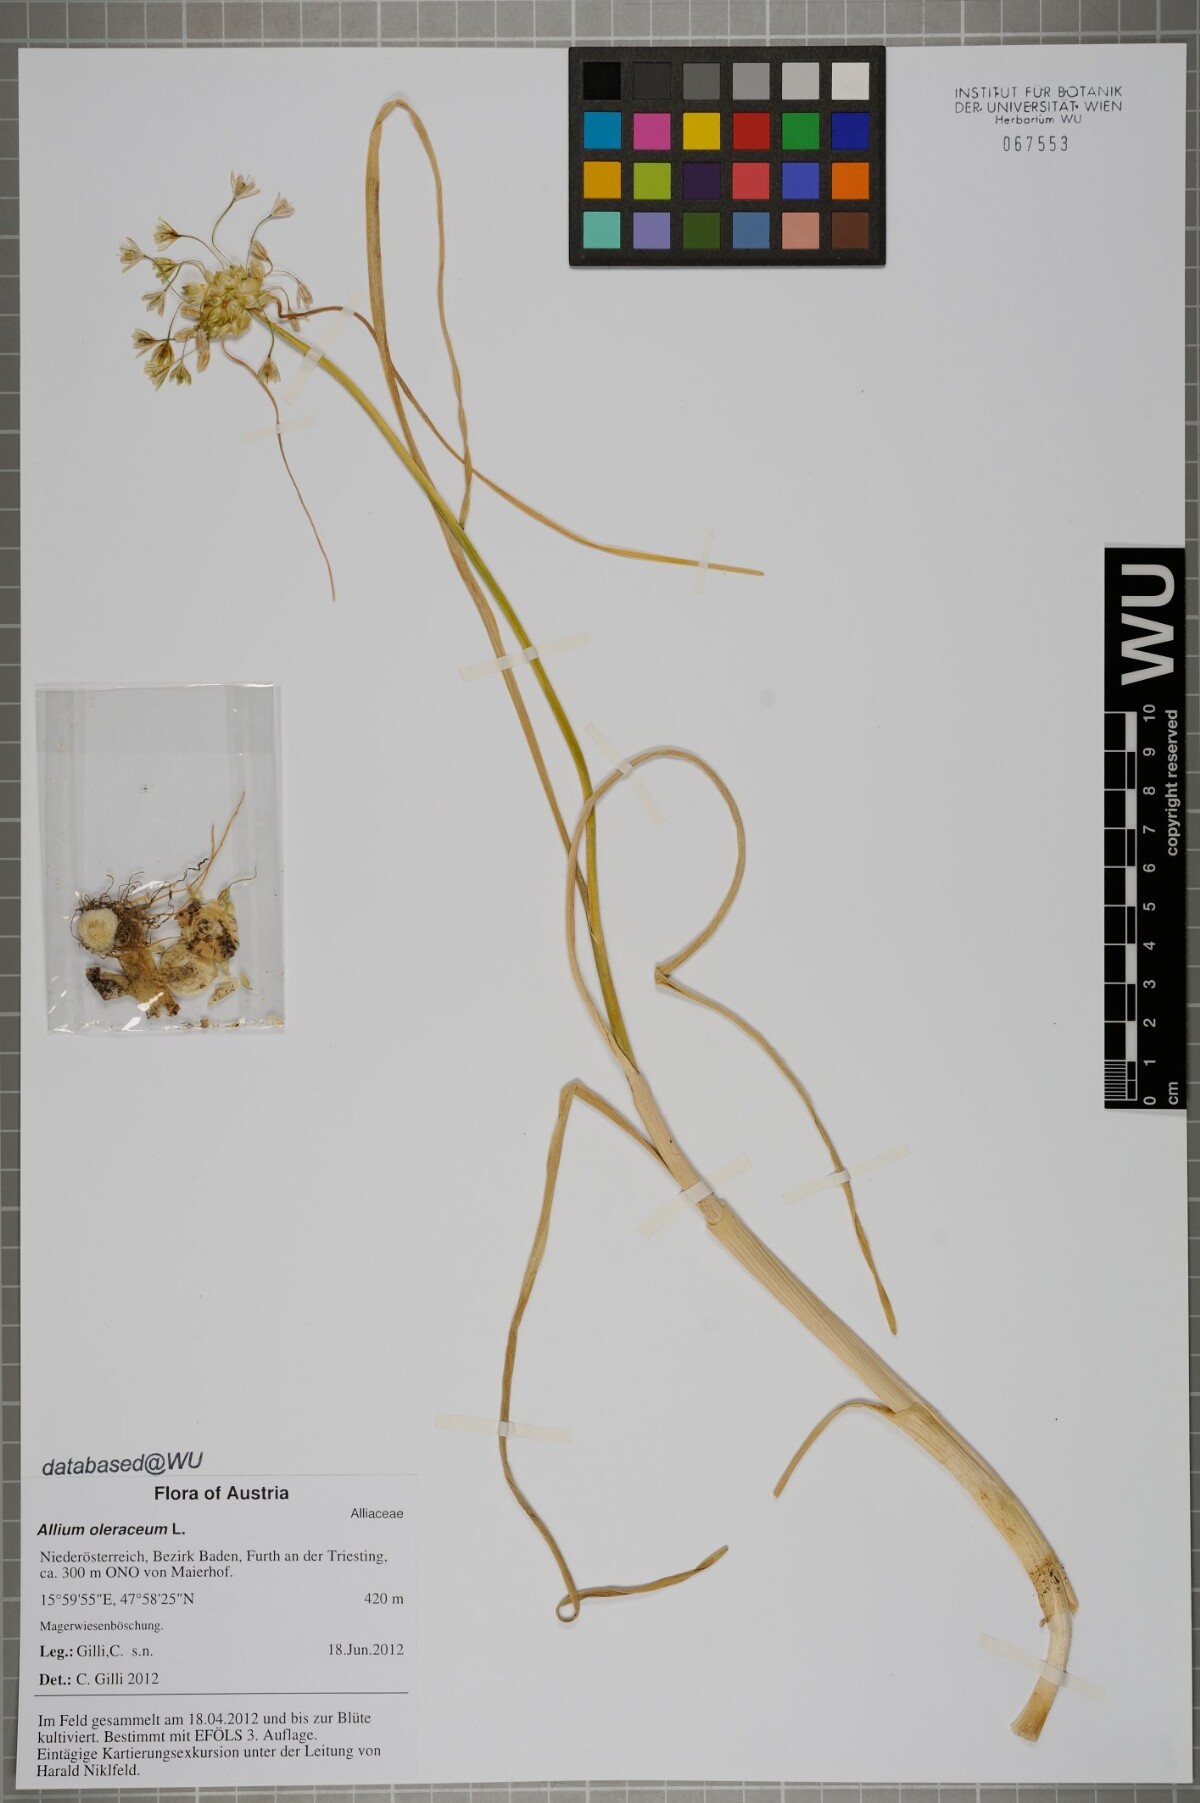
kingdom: Plantae
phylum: Tracheophyta
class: Liliopsida
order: Asparagales
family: Amaryllidaceae
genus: Allium
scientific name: Allium oleraceum
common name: Field garlic
